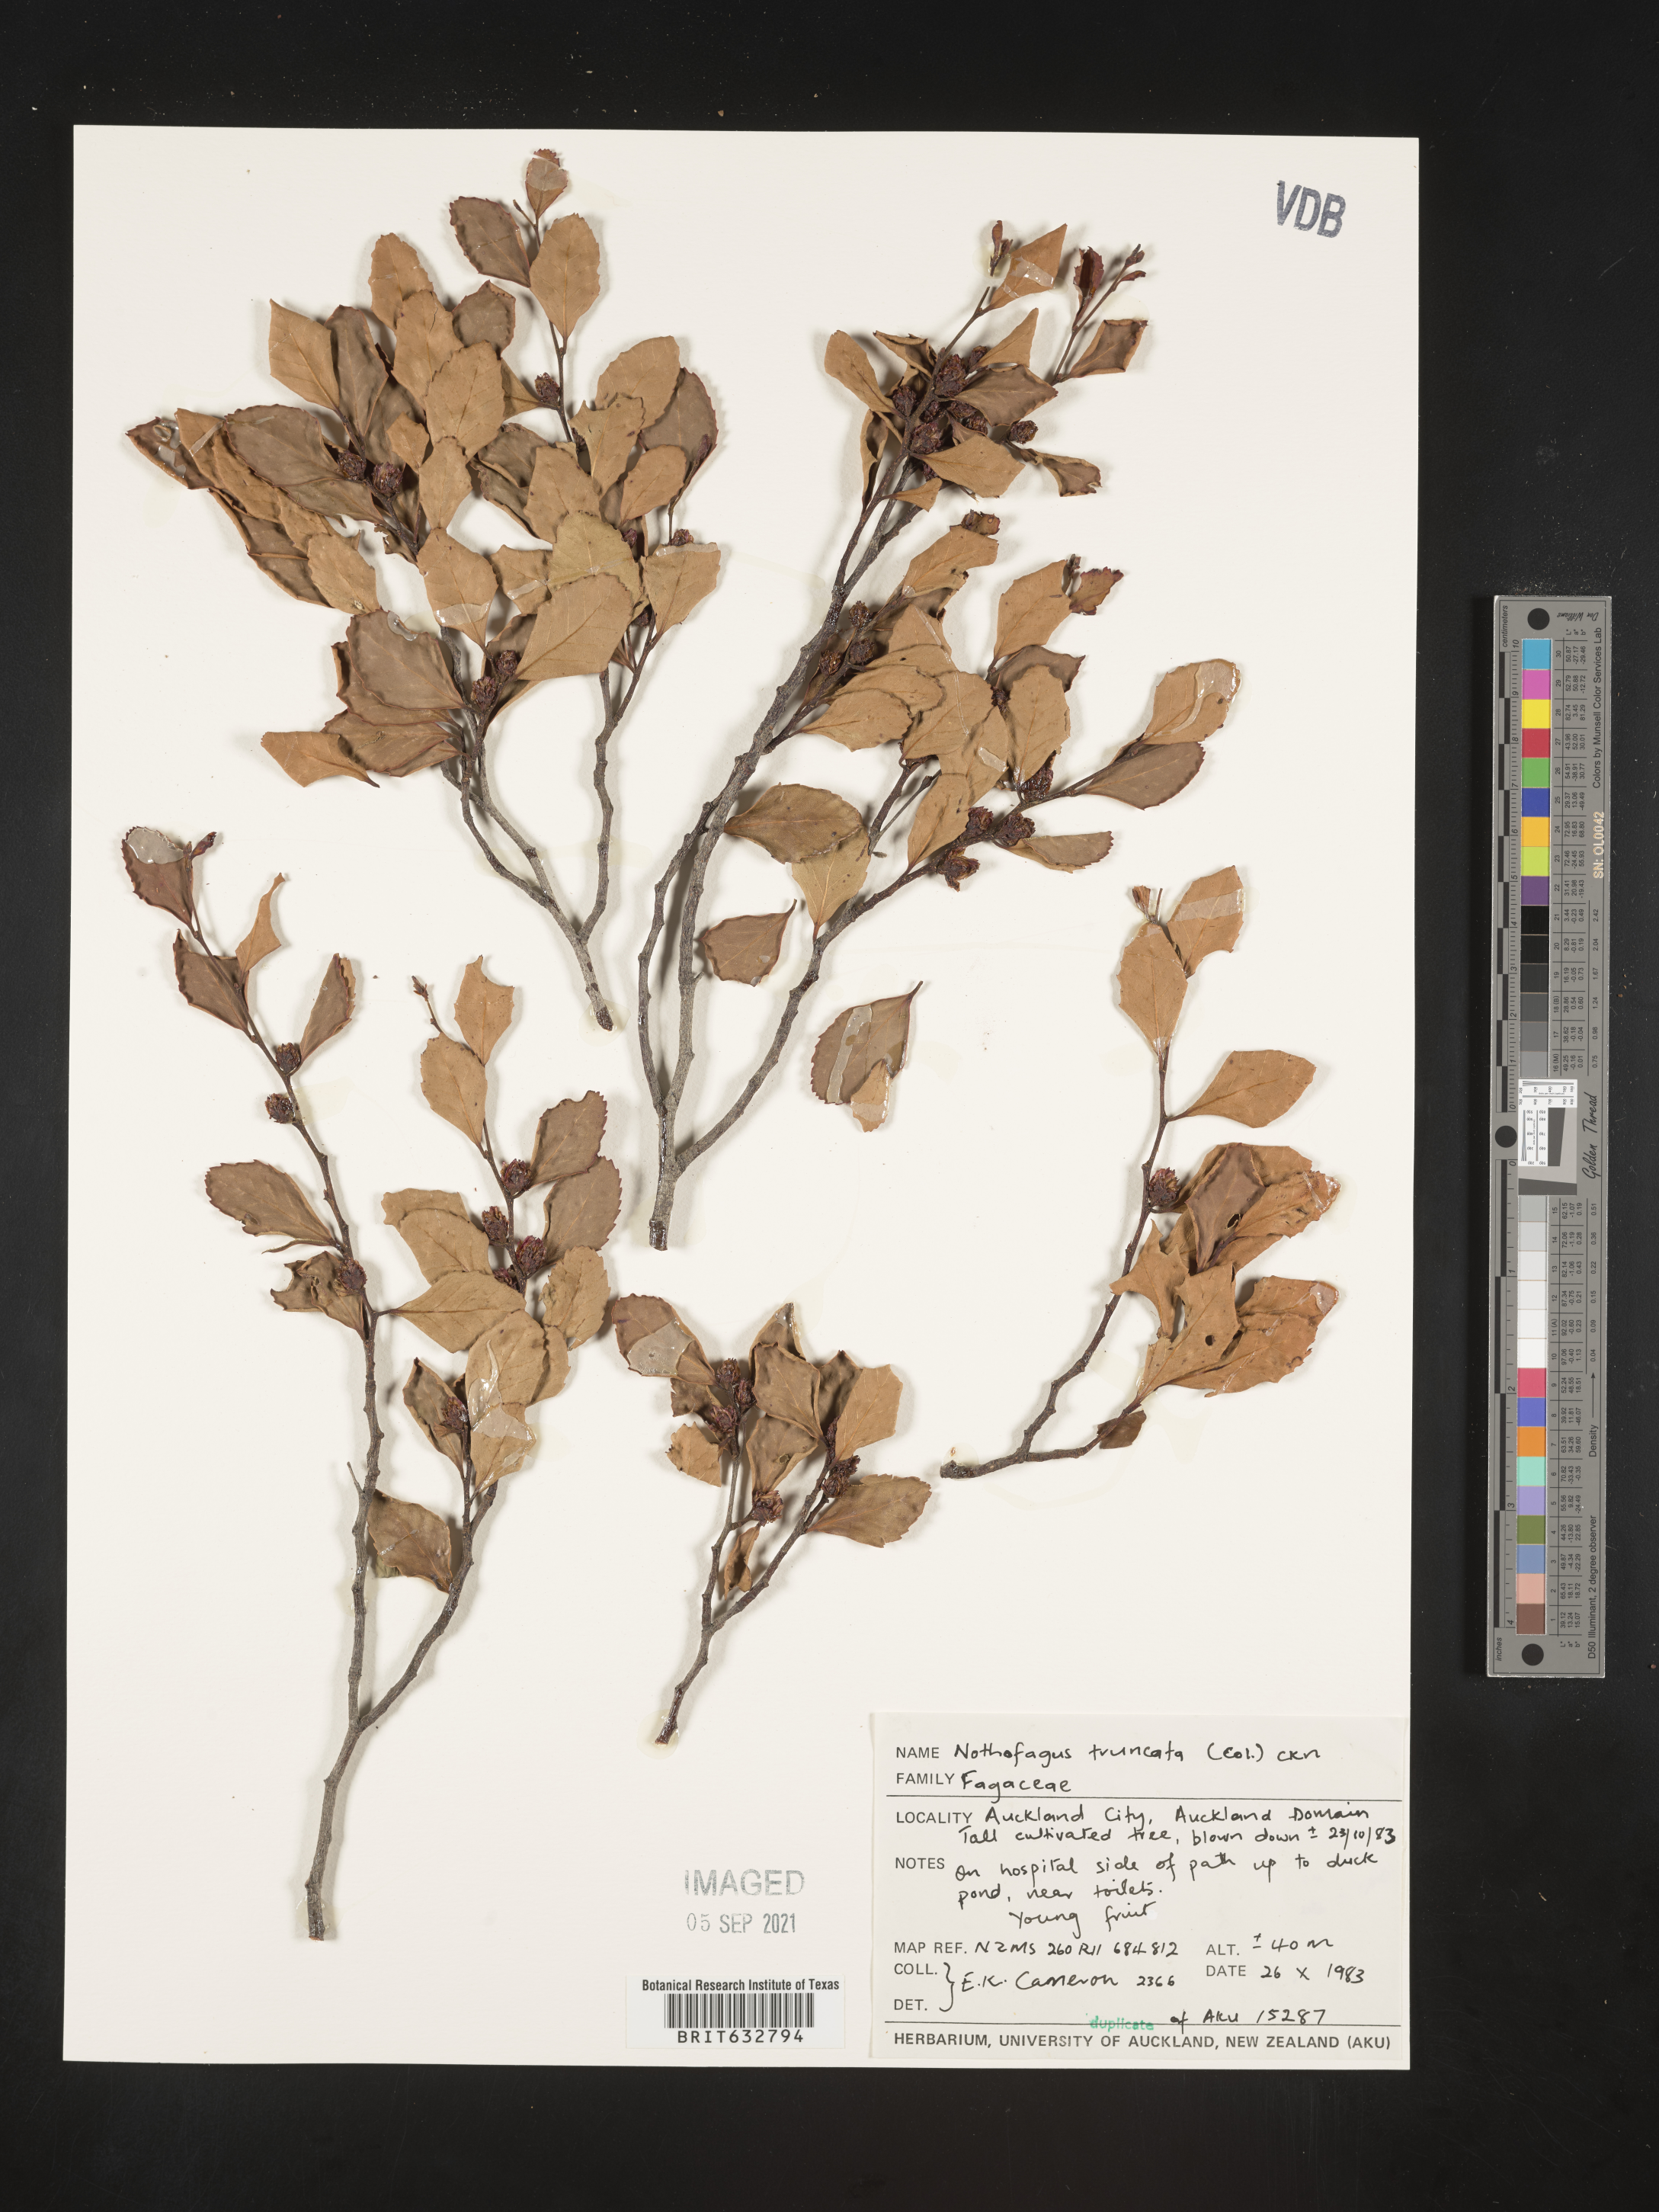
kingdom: Plantae
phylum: Tracheophyta
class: Magnoliopsida
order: Fagales
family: Nothofagaceae
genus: Nothofagus
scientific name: Nothofagus
